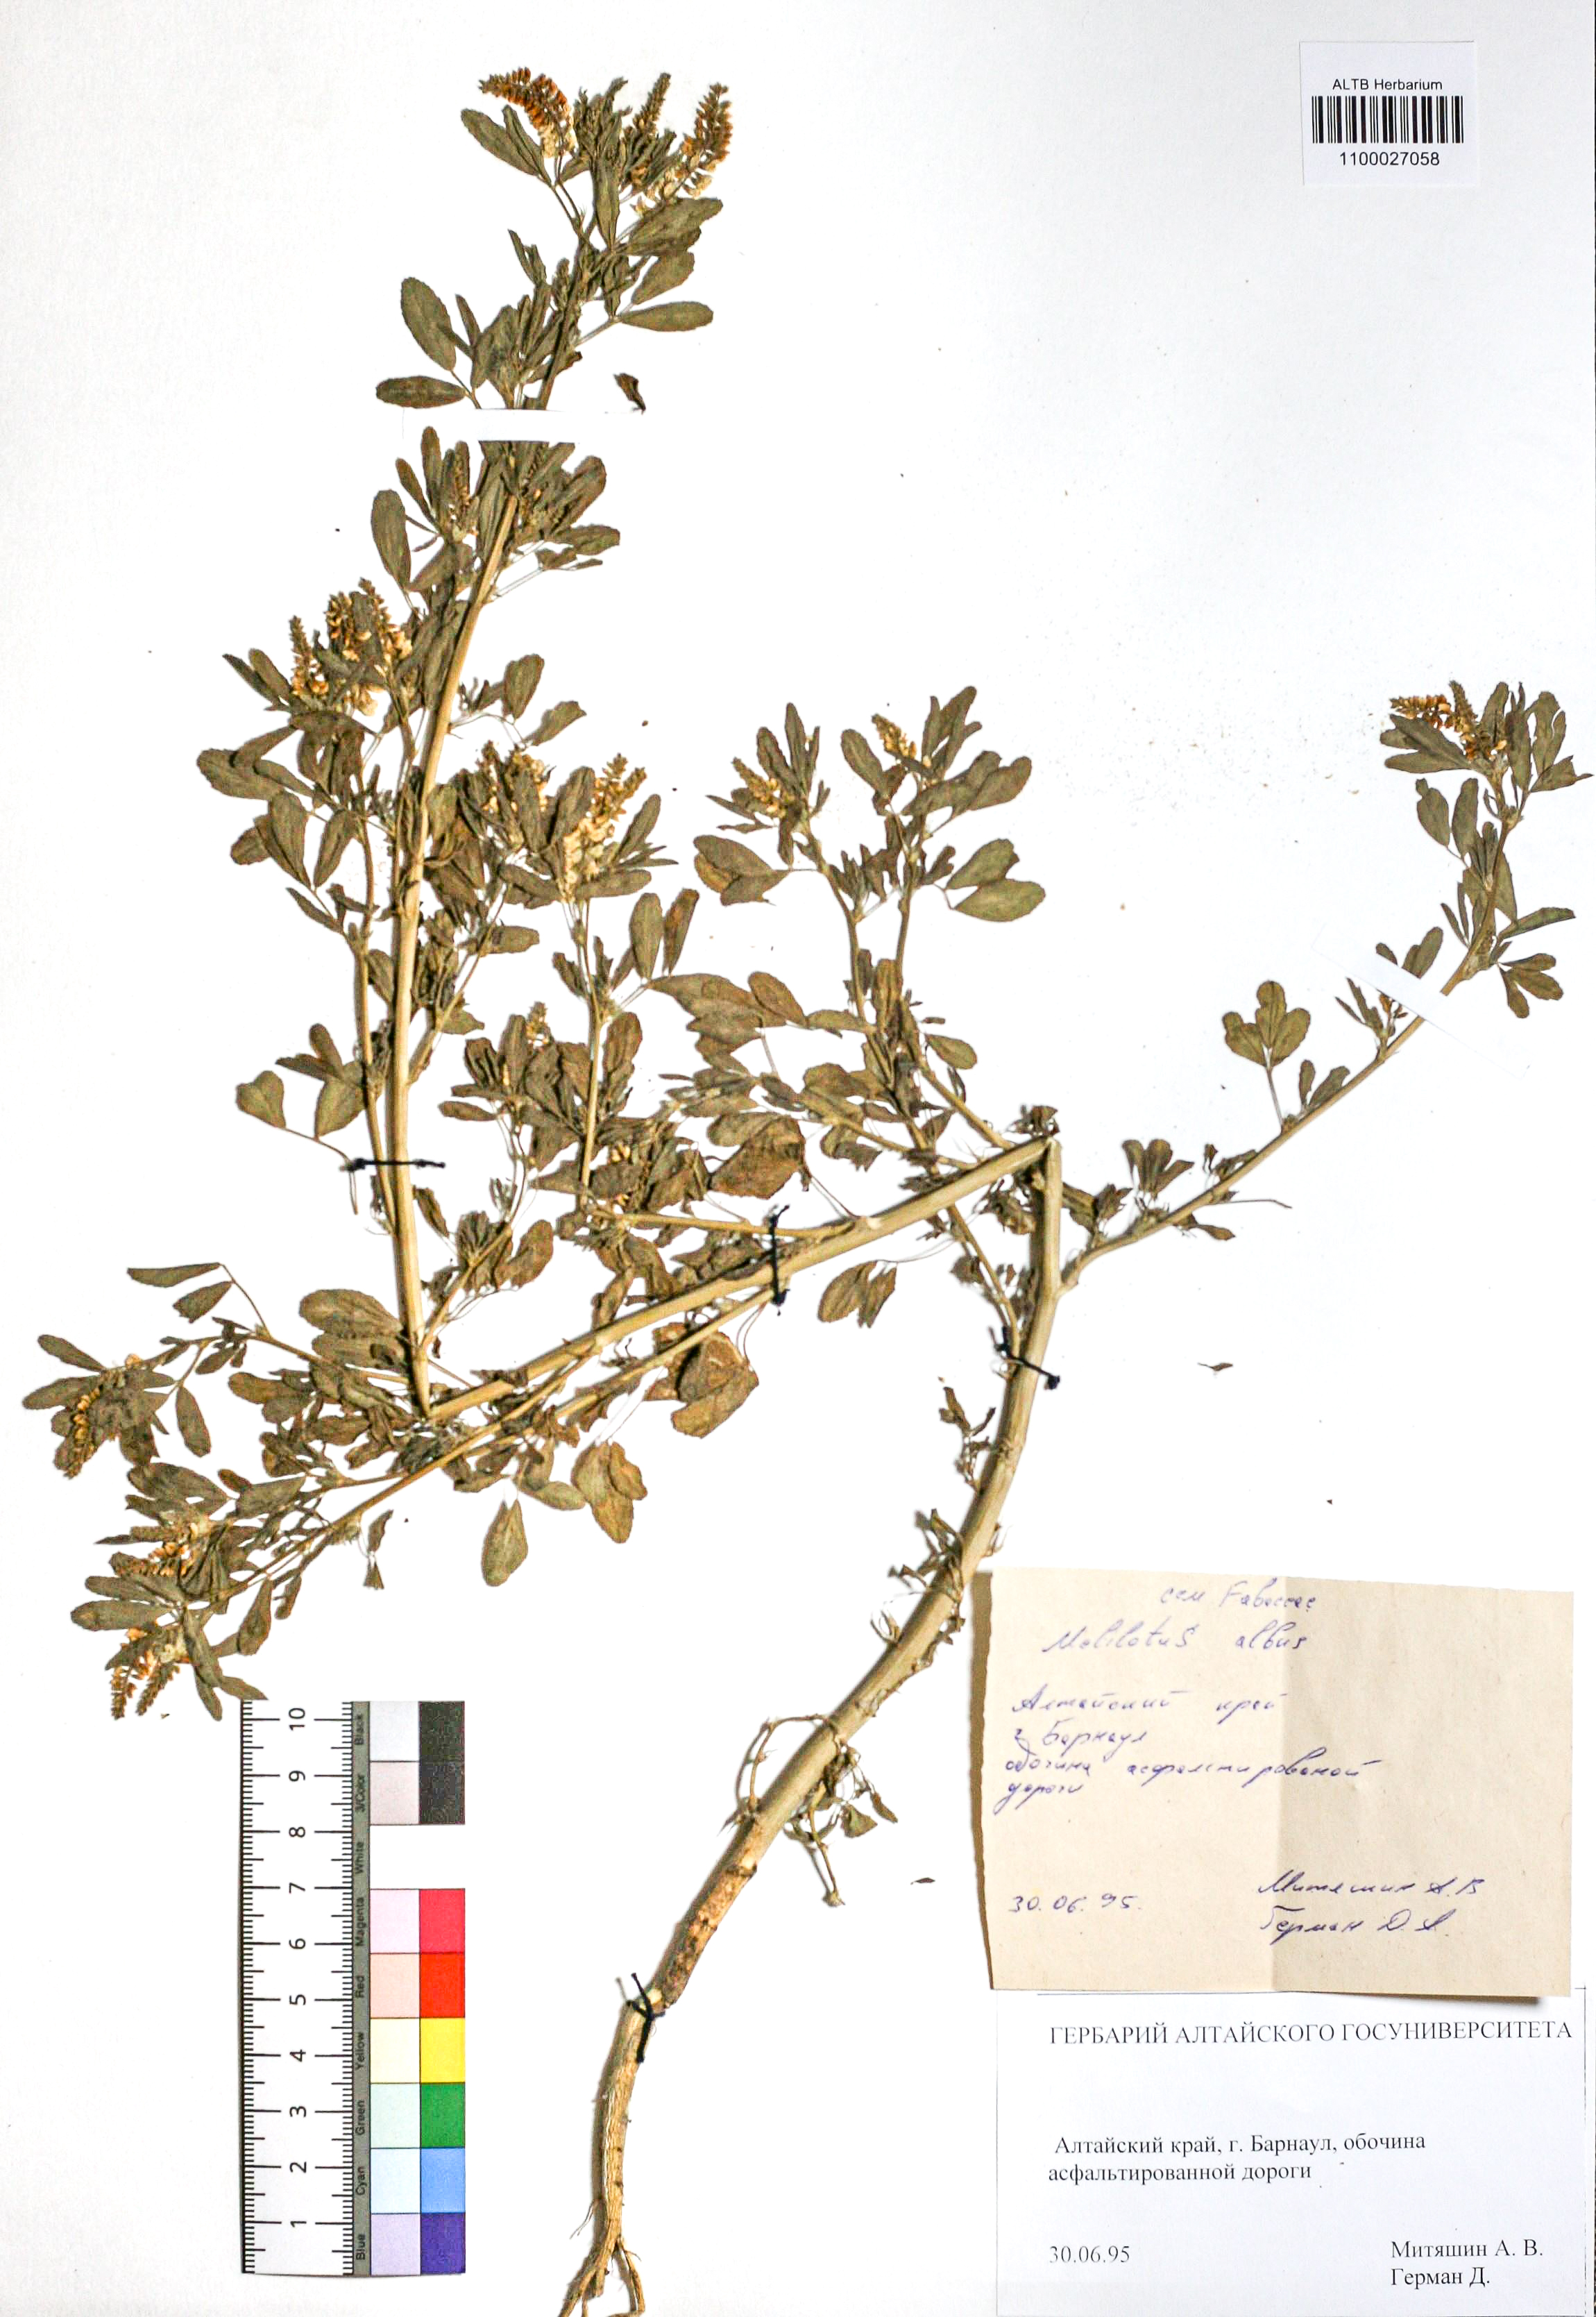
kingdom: Plantae
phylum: Tracheophyta
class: Magnoliopsida
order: Fabales
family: Fabaceae
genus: Melilotus
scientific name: Melilotus albus
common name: White melilot
